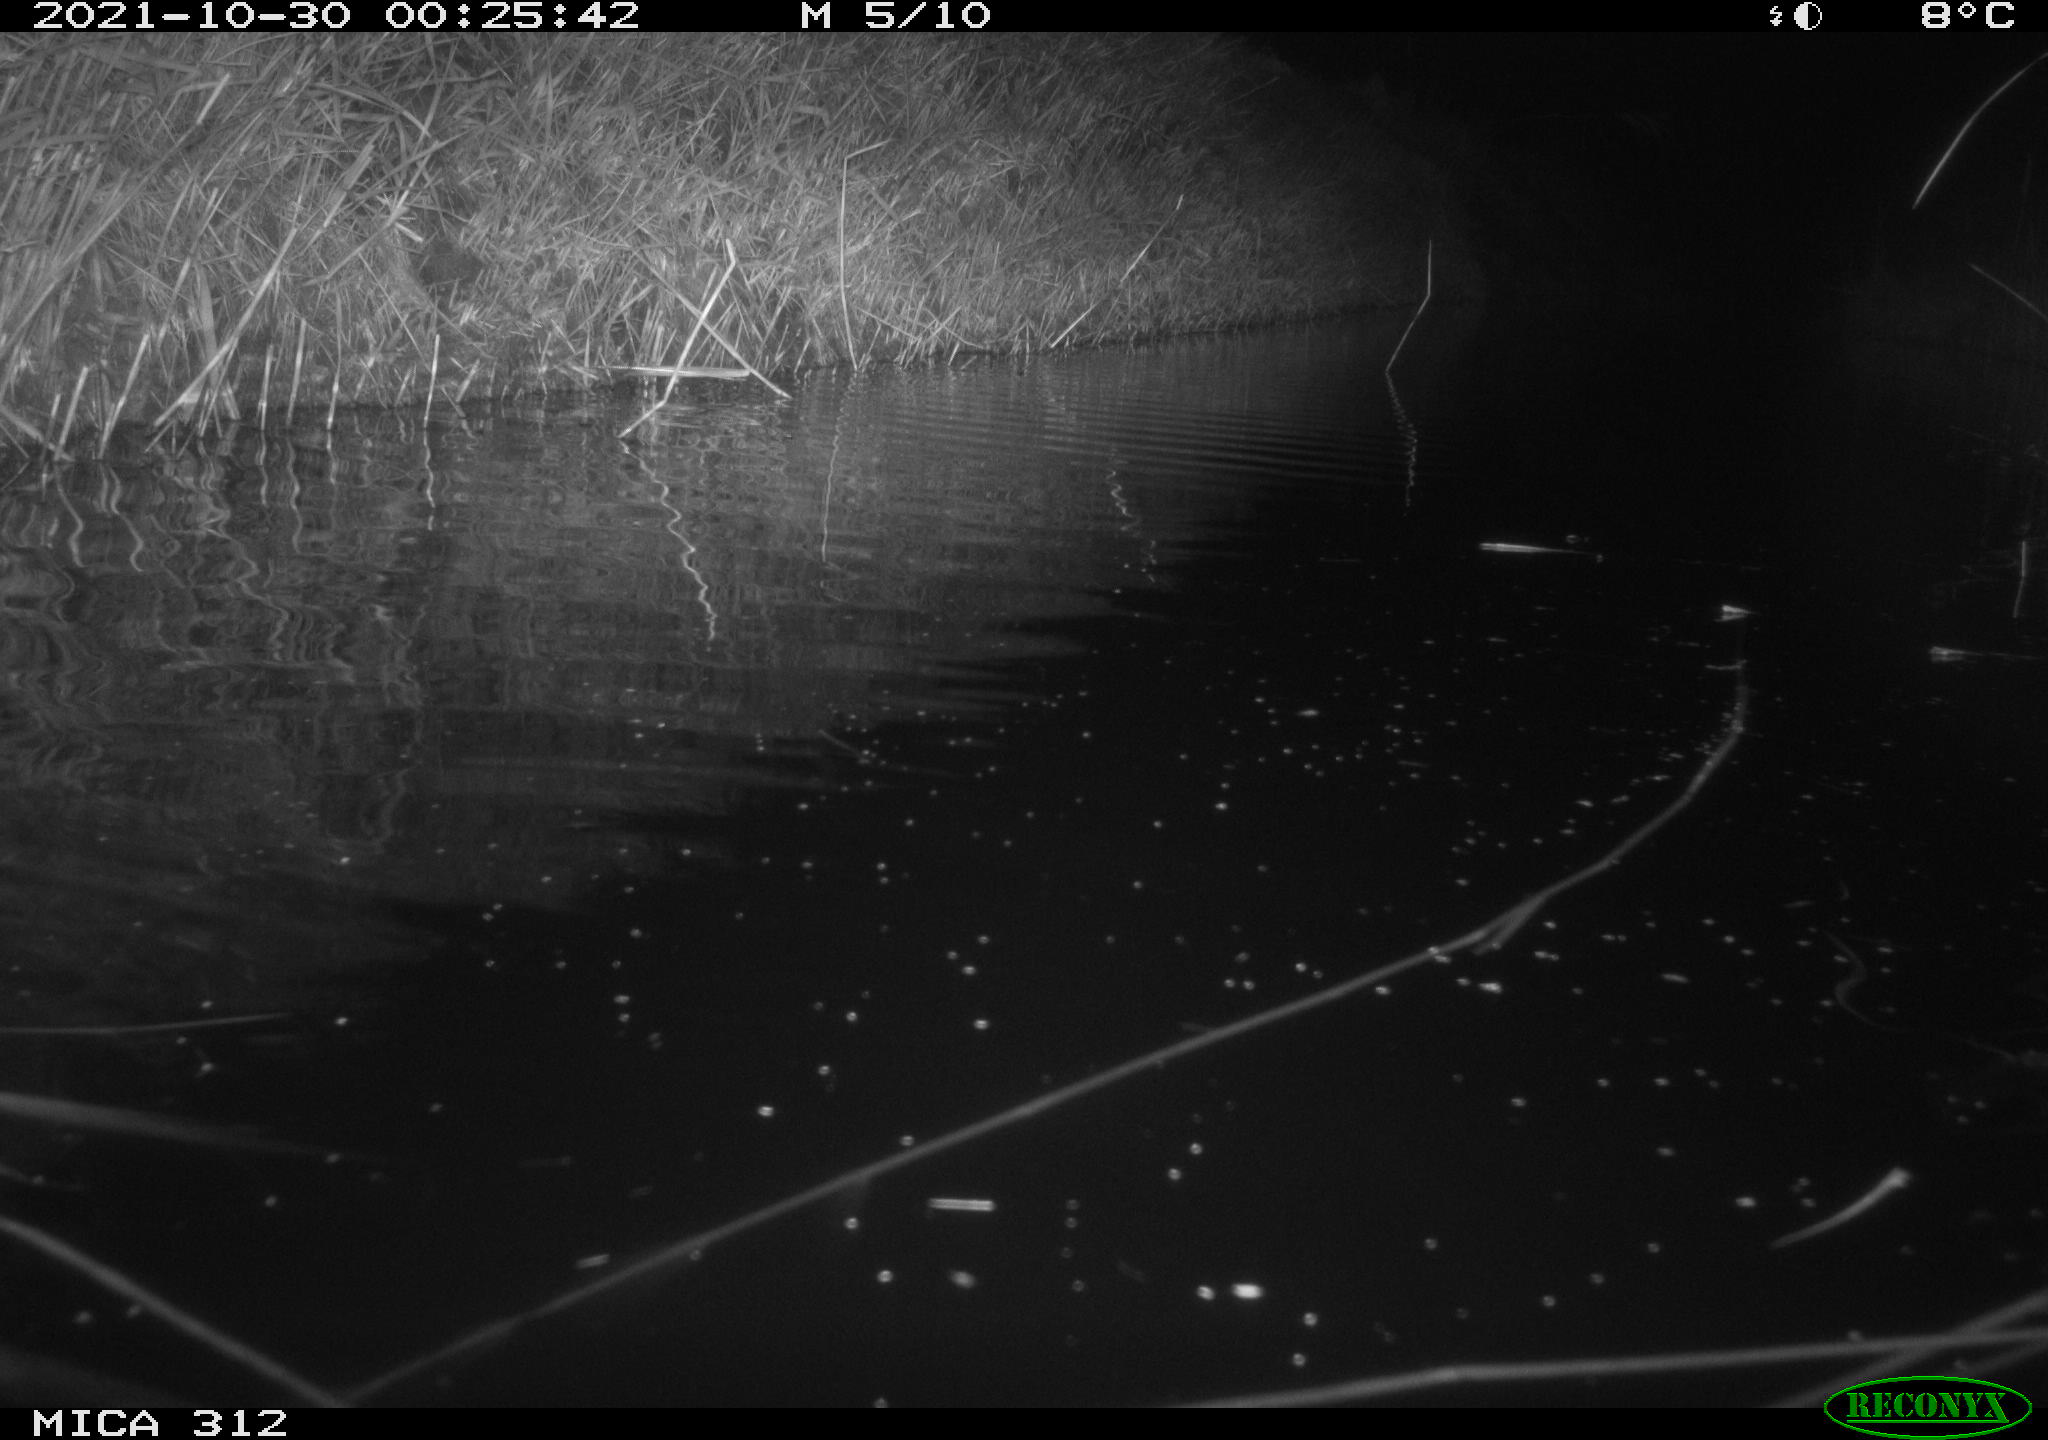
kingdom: Animalia
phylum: Chordata
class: Mammalia
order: Rodentia
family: Muridae
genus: Rattus
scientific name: Rattus norvegicus
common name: Brown rat
